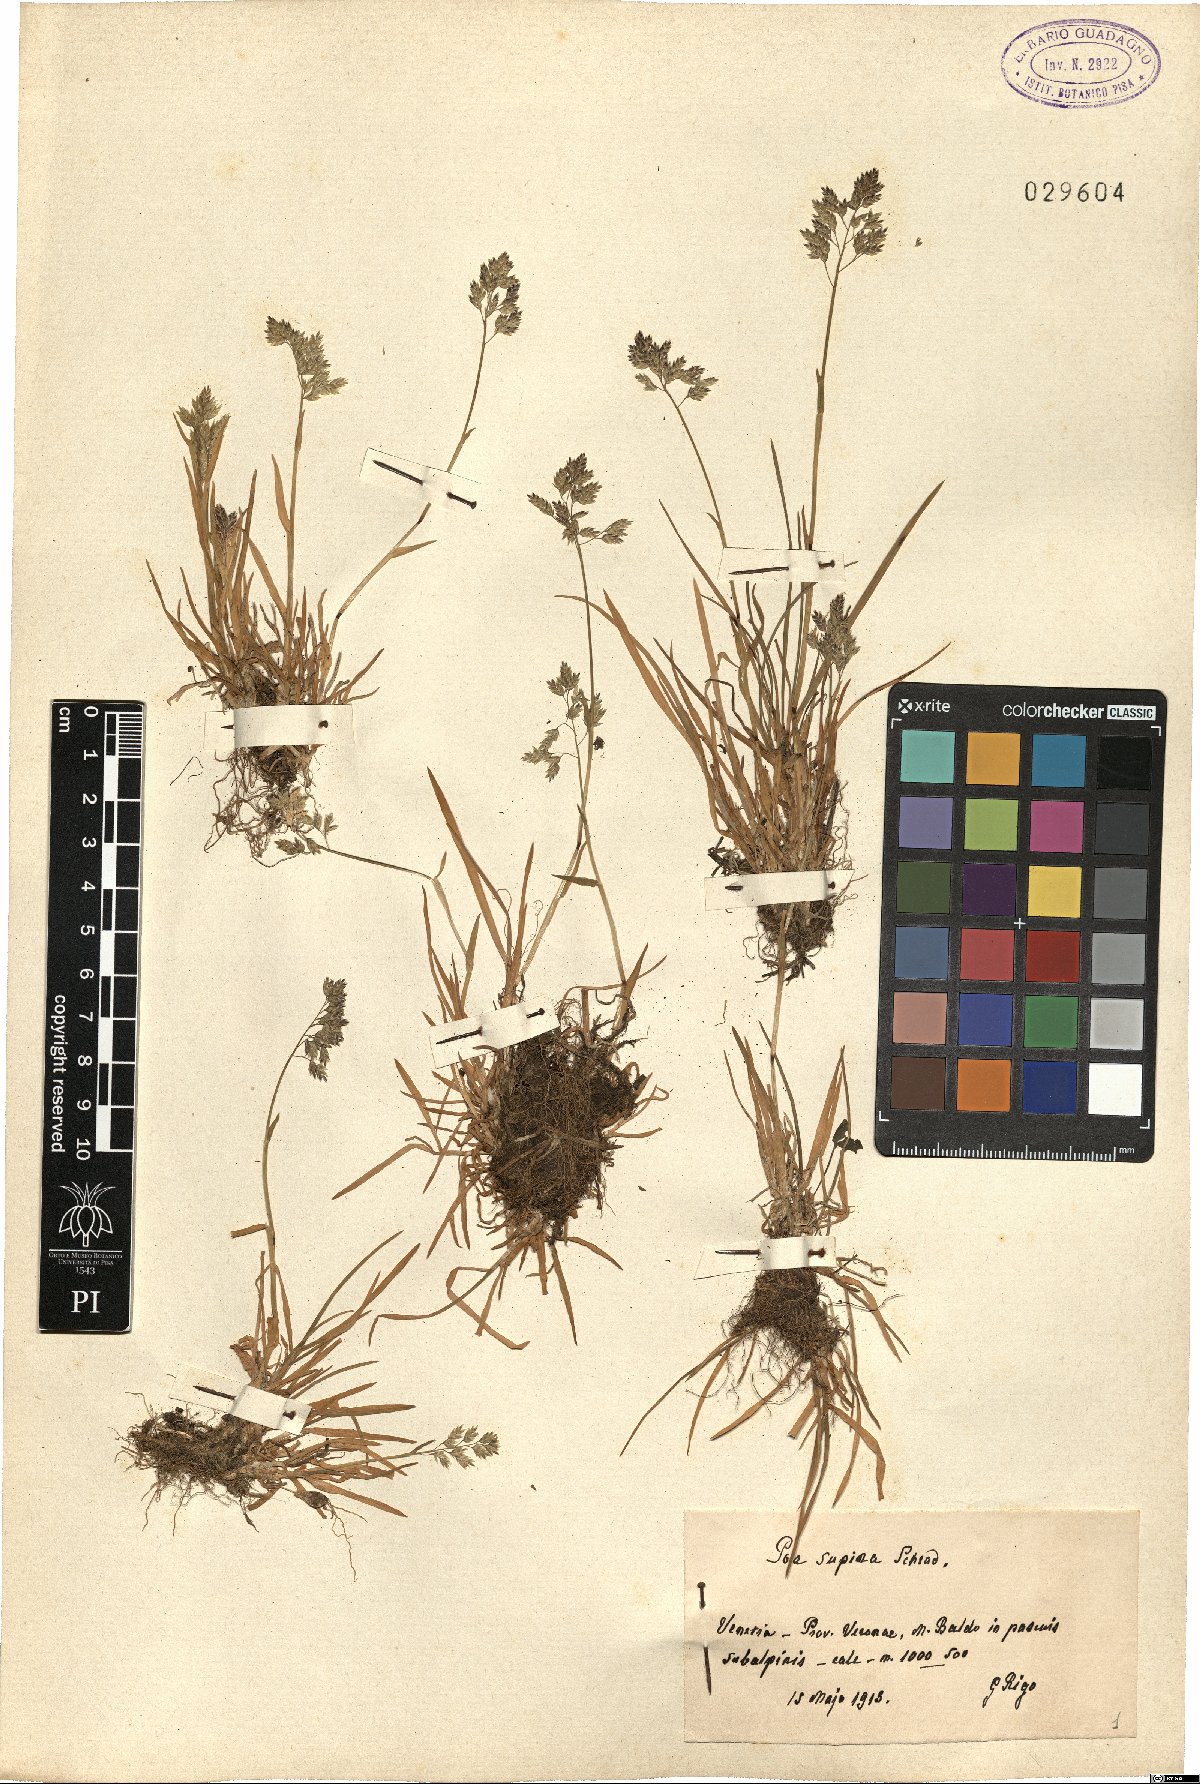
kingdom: Plantae
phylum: Tracheophyta
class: Liliopsida
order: Poales
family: Poaceae
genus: Poa
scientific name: Poa supina
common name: Supina bluegrass
